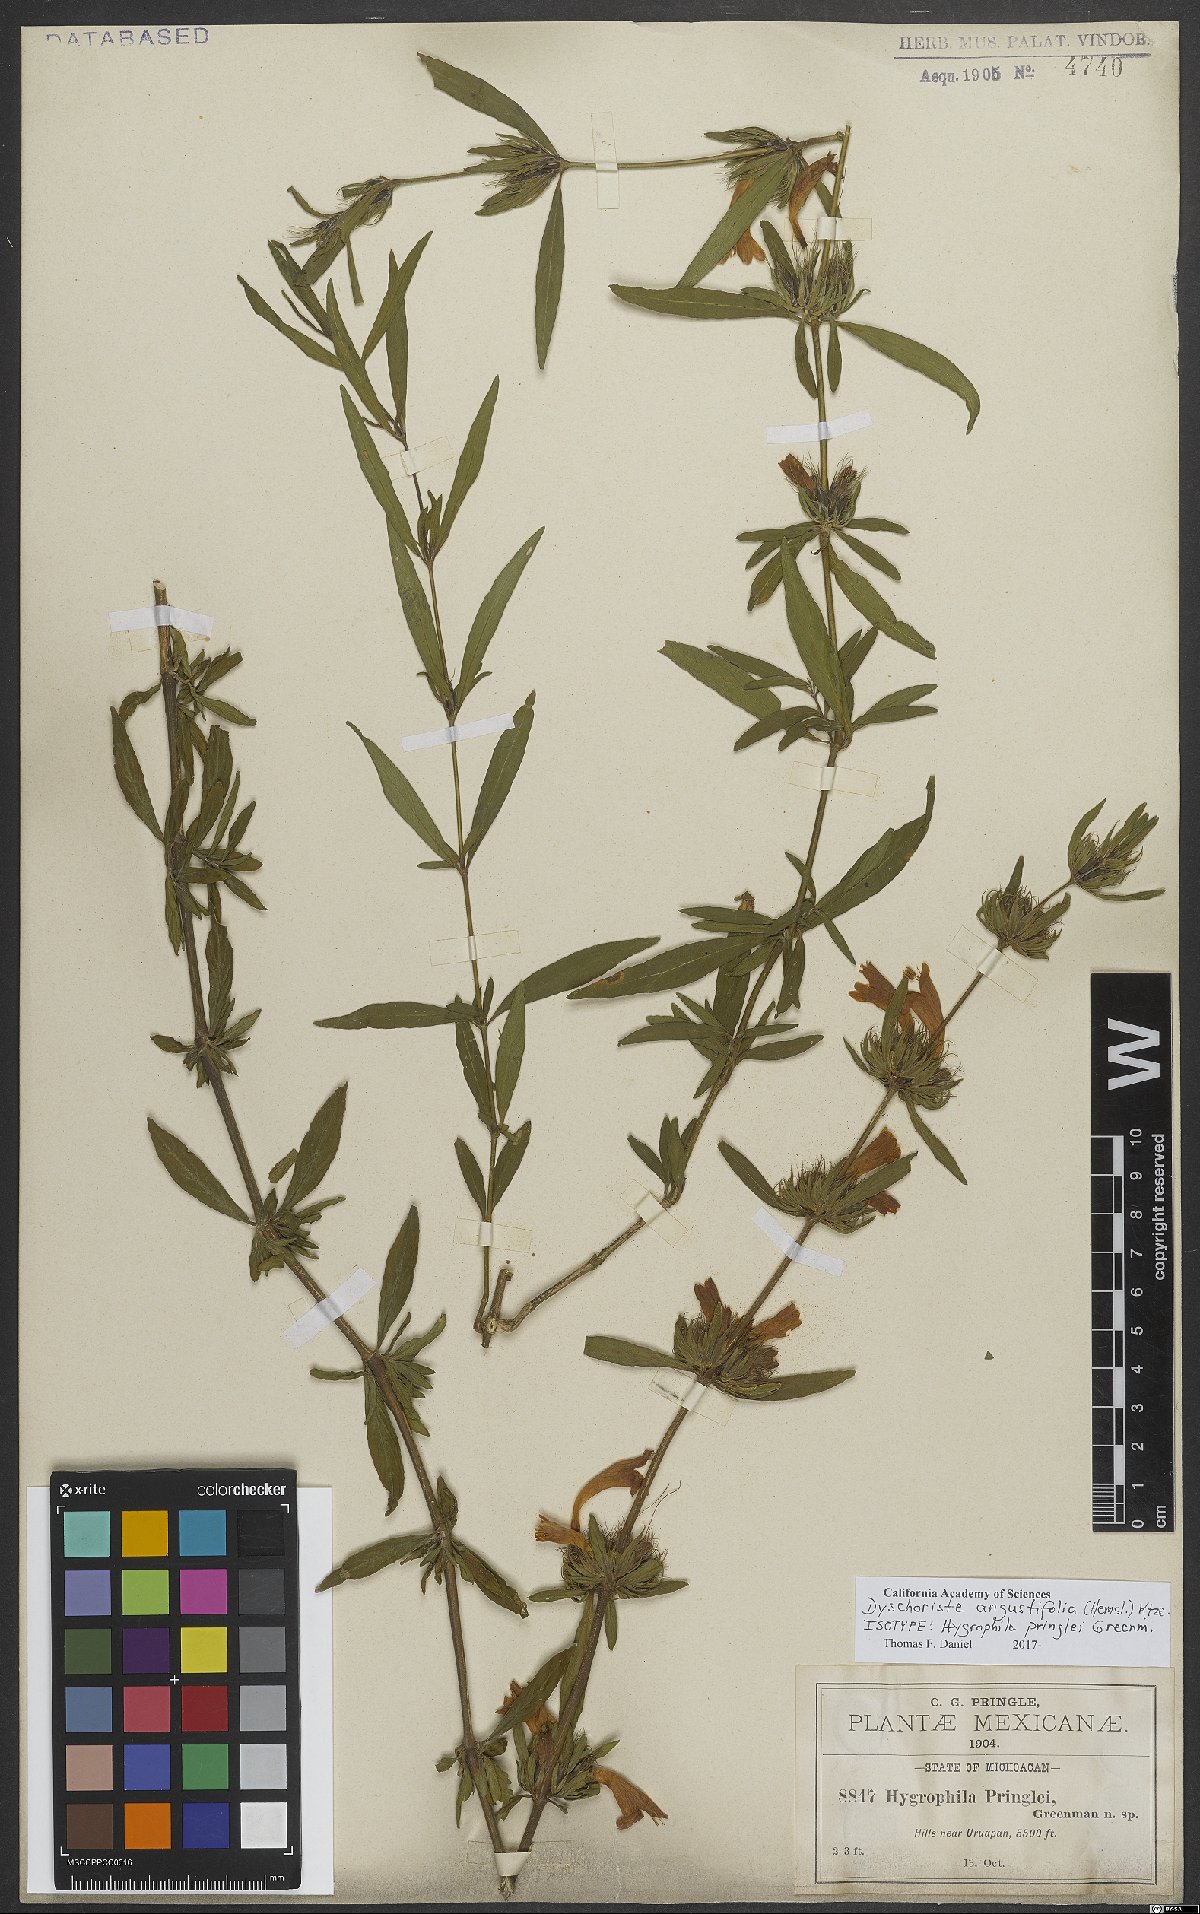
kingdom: Plantae
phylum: Tracheophyta
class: Magnoliopsida
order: Lamiales
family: Acanthaceae
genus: Dyschoriste
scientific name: Dyschoriste angustifolia
